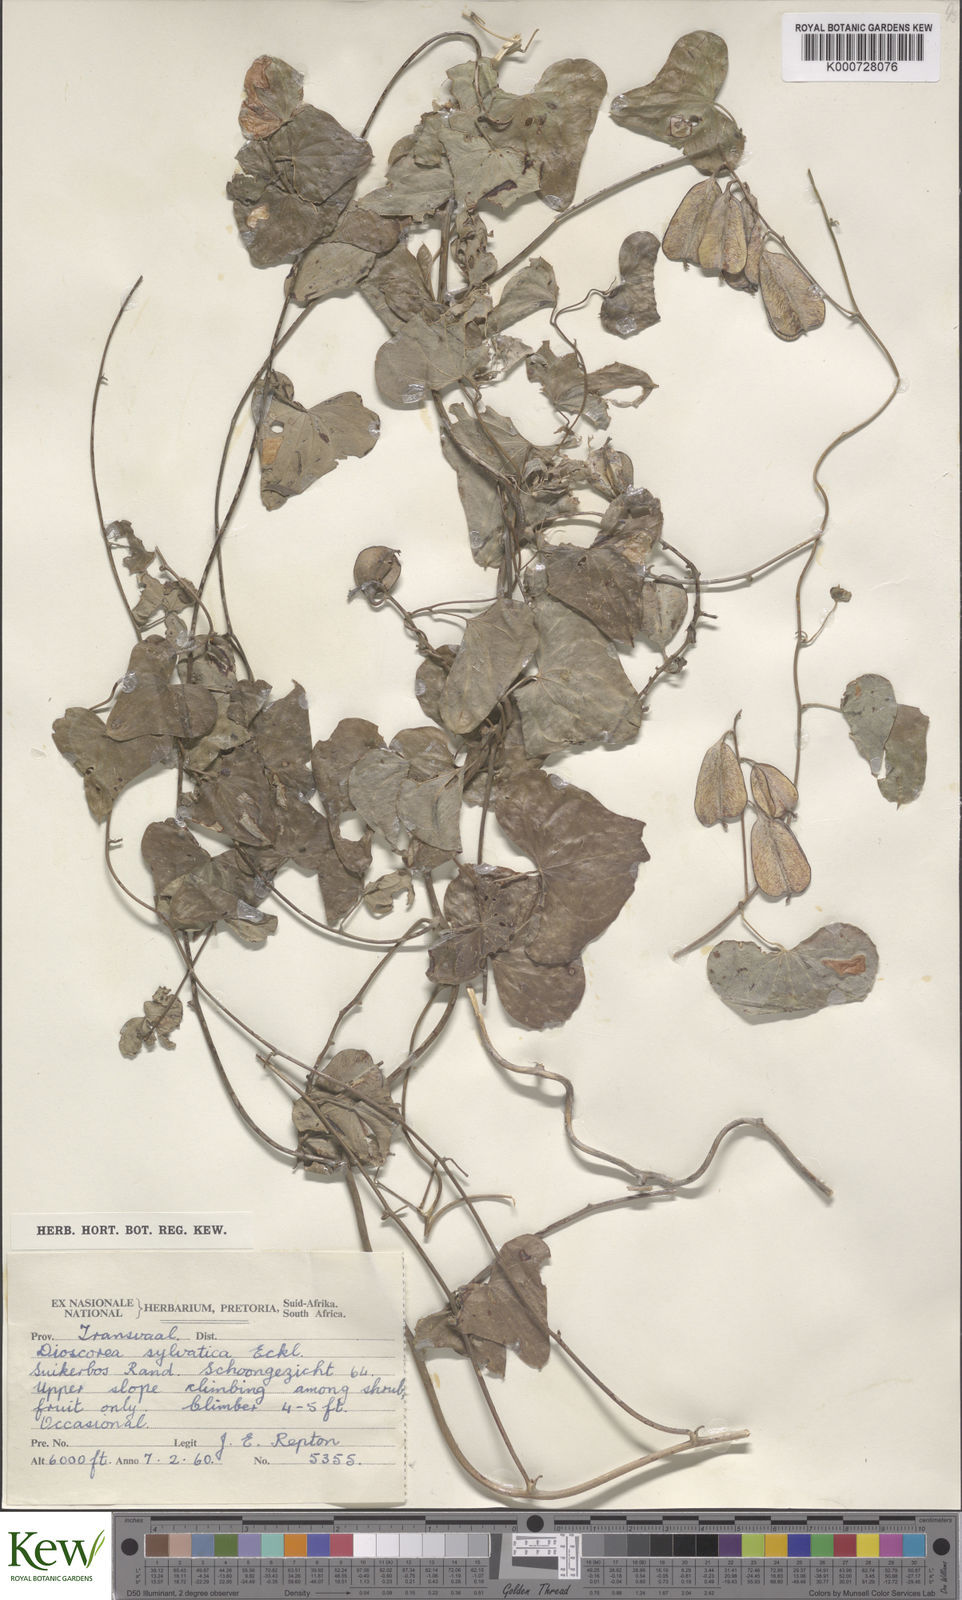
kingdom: Plantae
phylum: Tracheophyta
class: Liliopsida
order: Dioscoreales
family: Dioscoreaceae
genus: Dioscorea
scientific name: Dioscorea sylvatica
